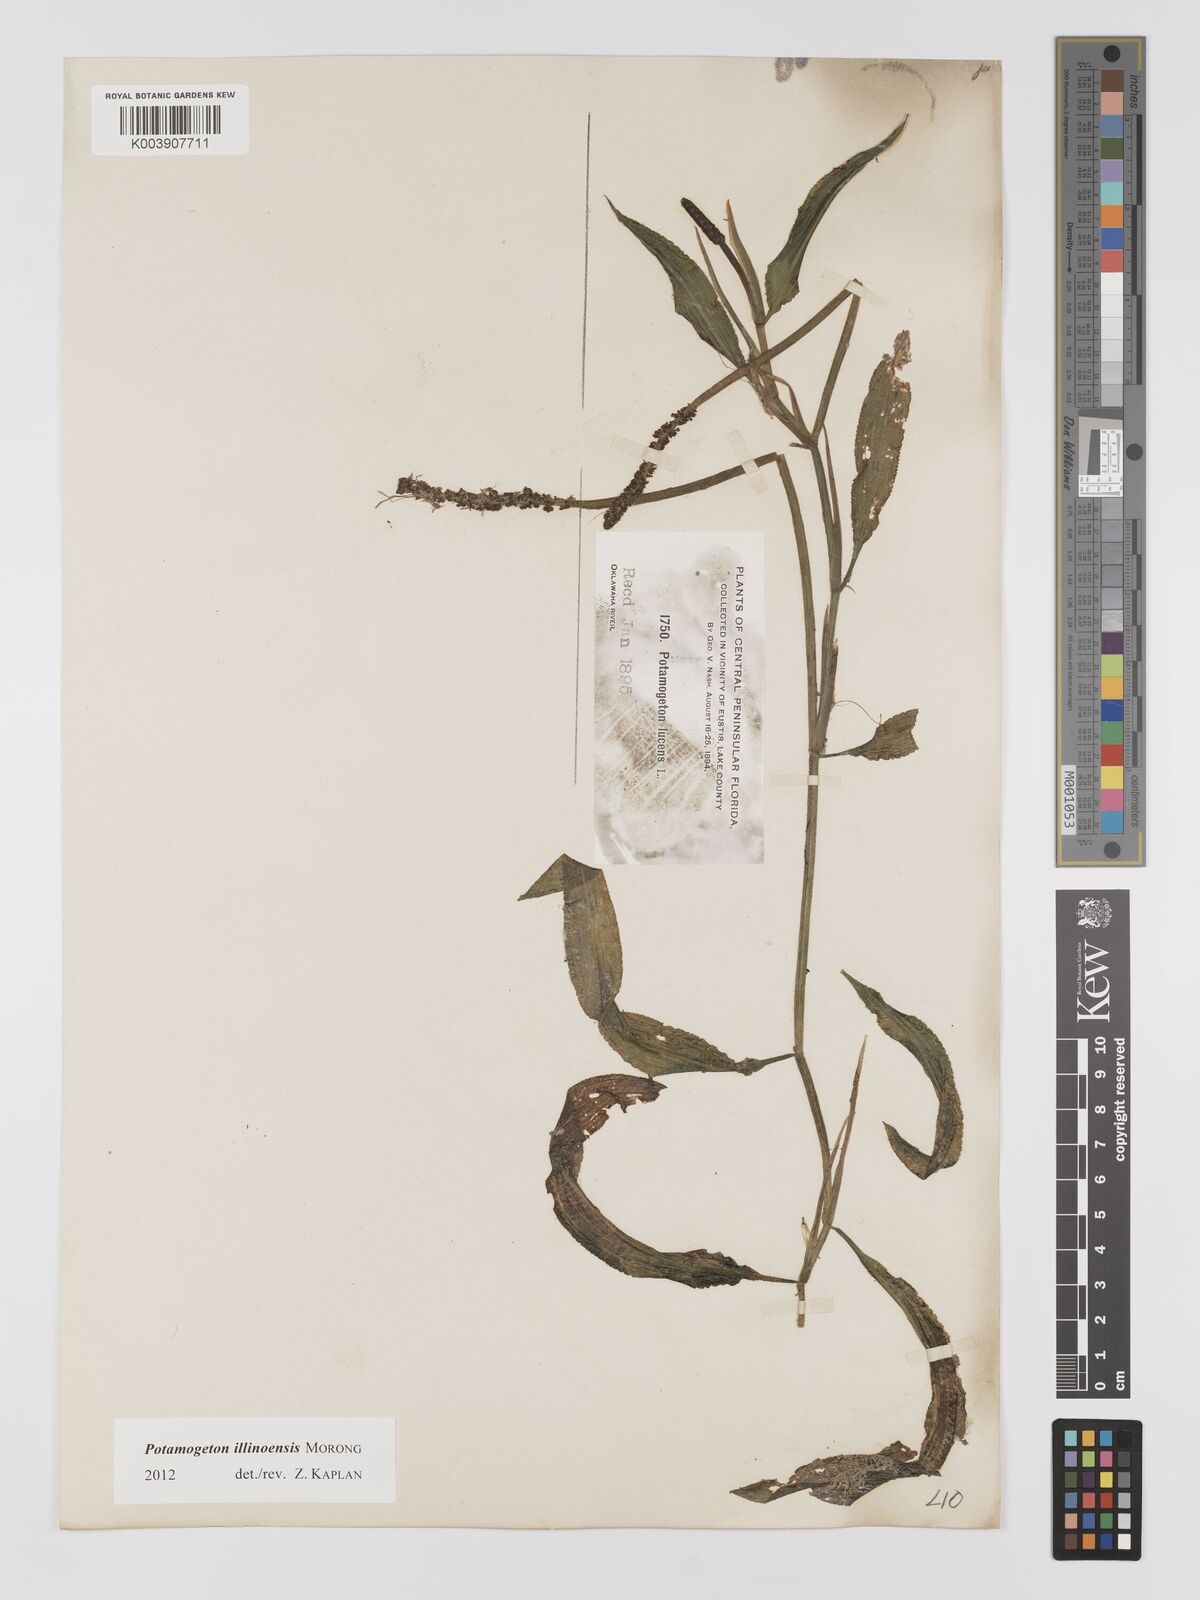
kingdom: Plantae
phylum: Tracheophyta
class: Liliopsida
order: Alismatales
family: Potamogetonaceae
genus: Potamogeton
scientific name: Potamogeton illinoensis
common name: Illinois pondweed
